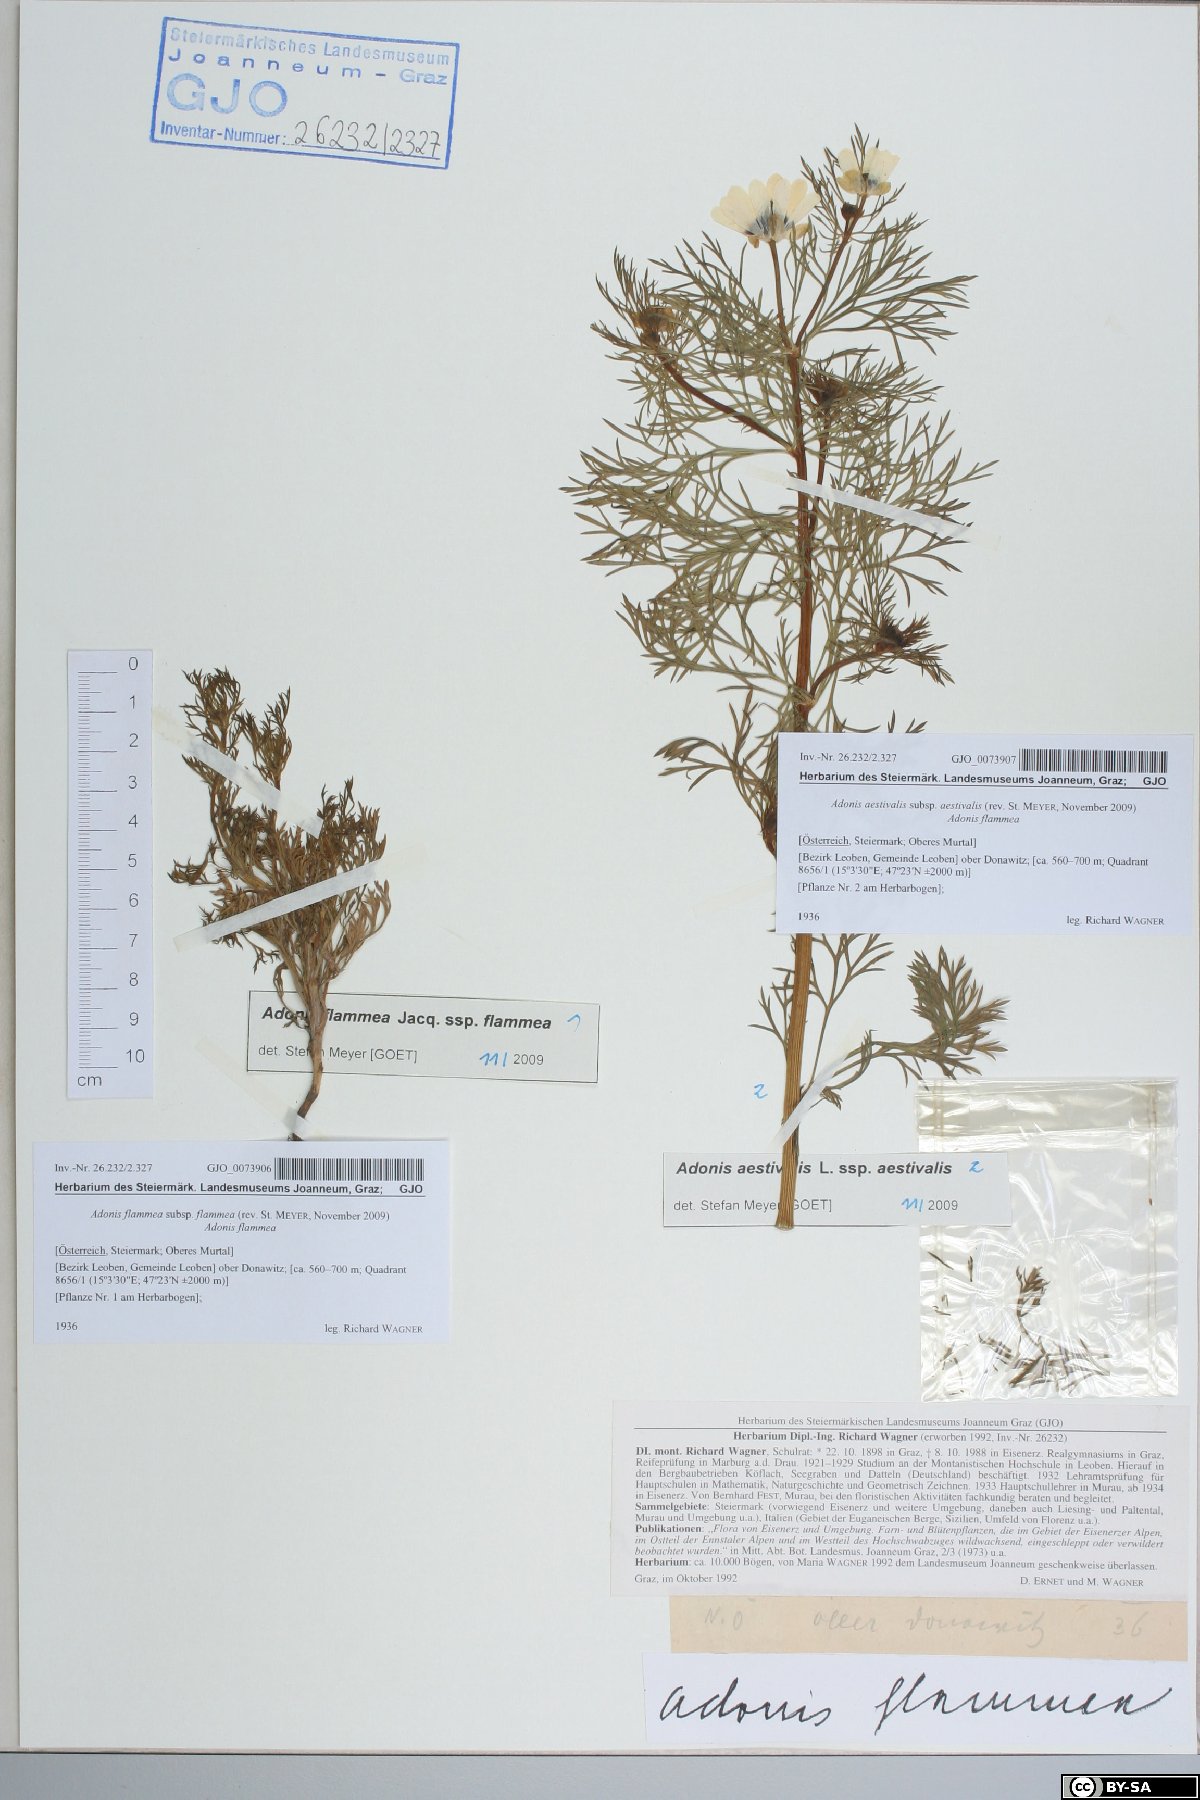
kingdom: Plantae
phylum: Tracheophyta
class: Magnoliopsida
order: Ranunculales
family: Ranunculaceae
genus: Adonis
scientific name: Adonis aestivalis
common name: Summer pheasant's-eye
